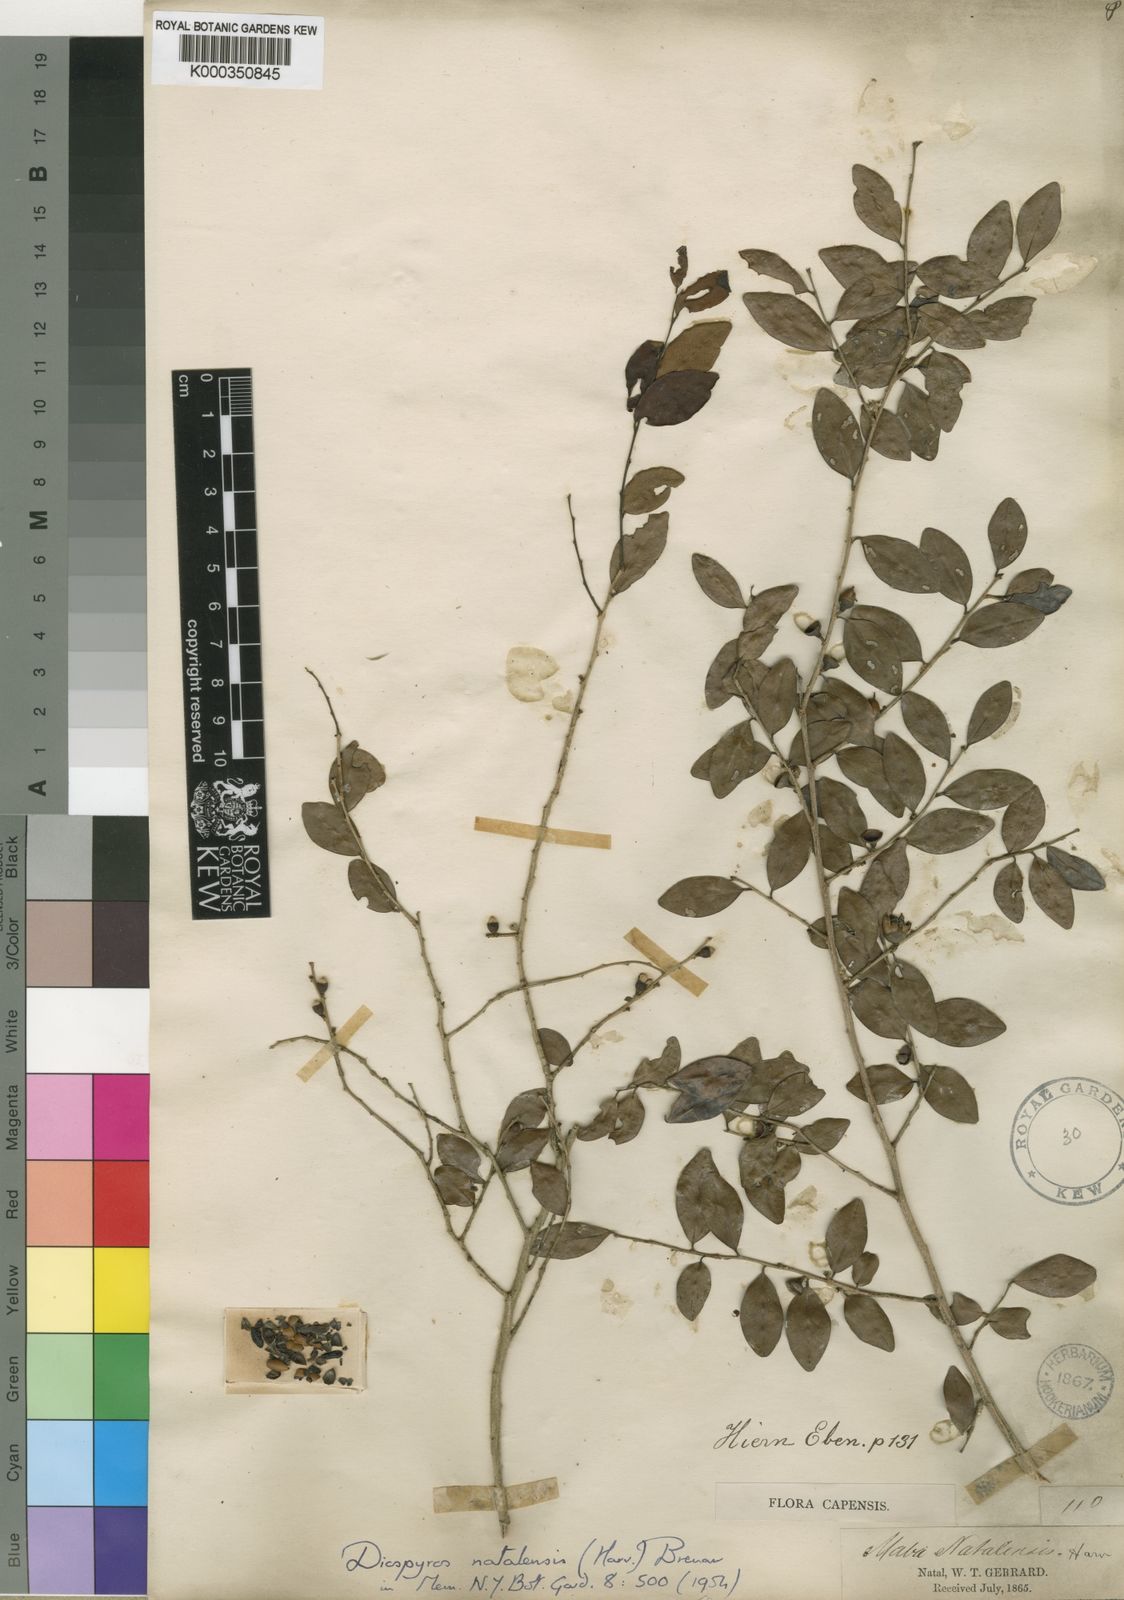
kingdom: Plantae
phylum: Tracheophyta
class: Magnoliopsida
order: Ericales
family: Ebenaceae
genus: Diospyros
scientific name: Diospyros natalensis
